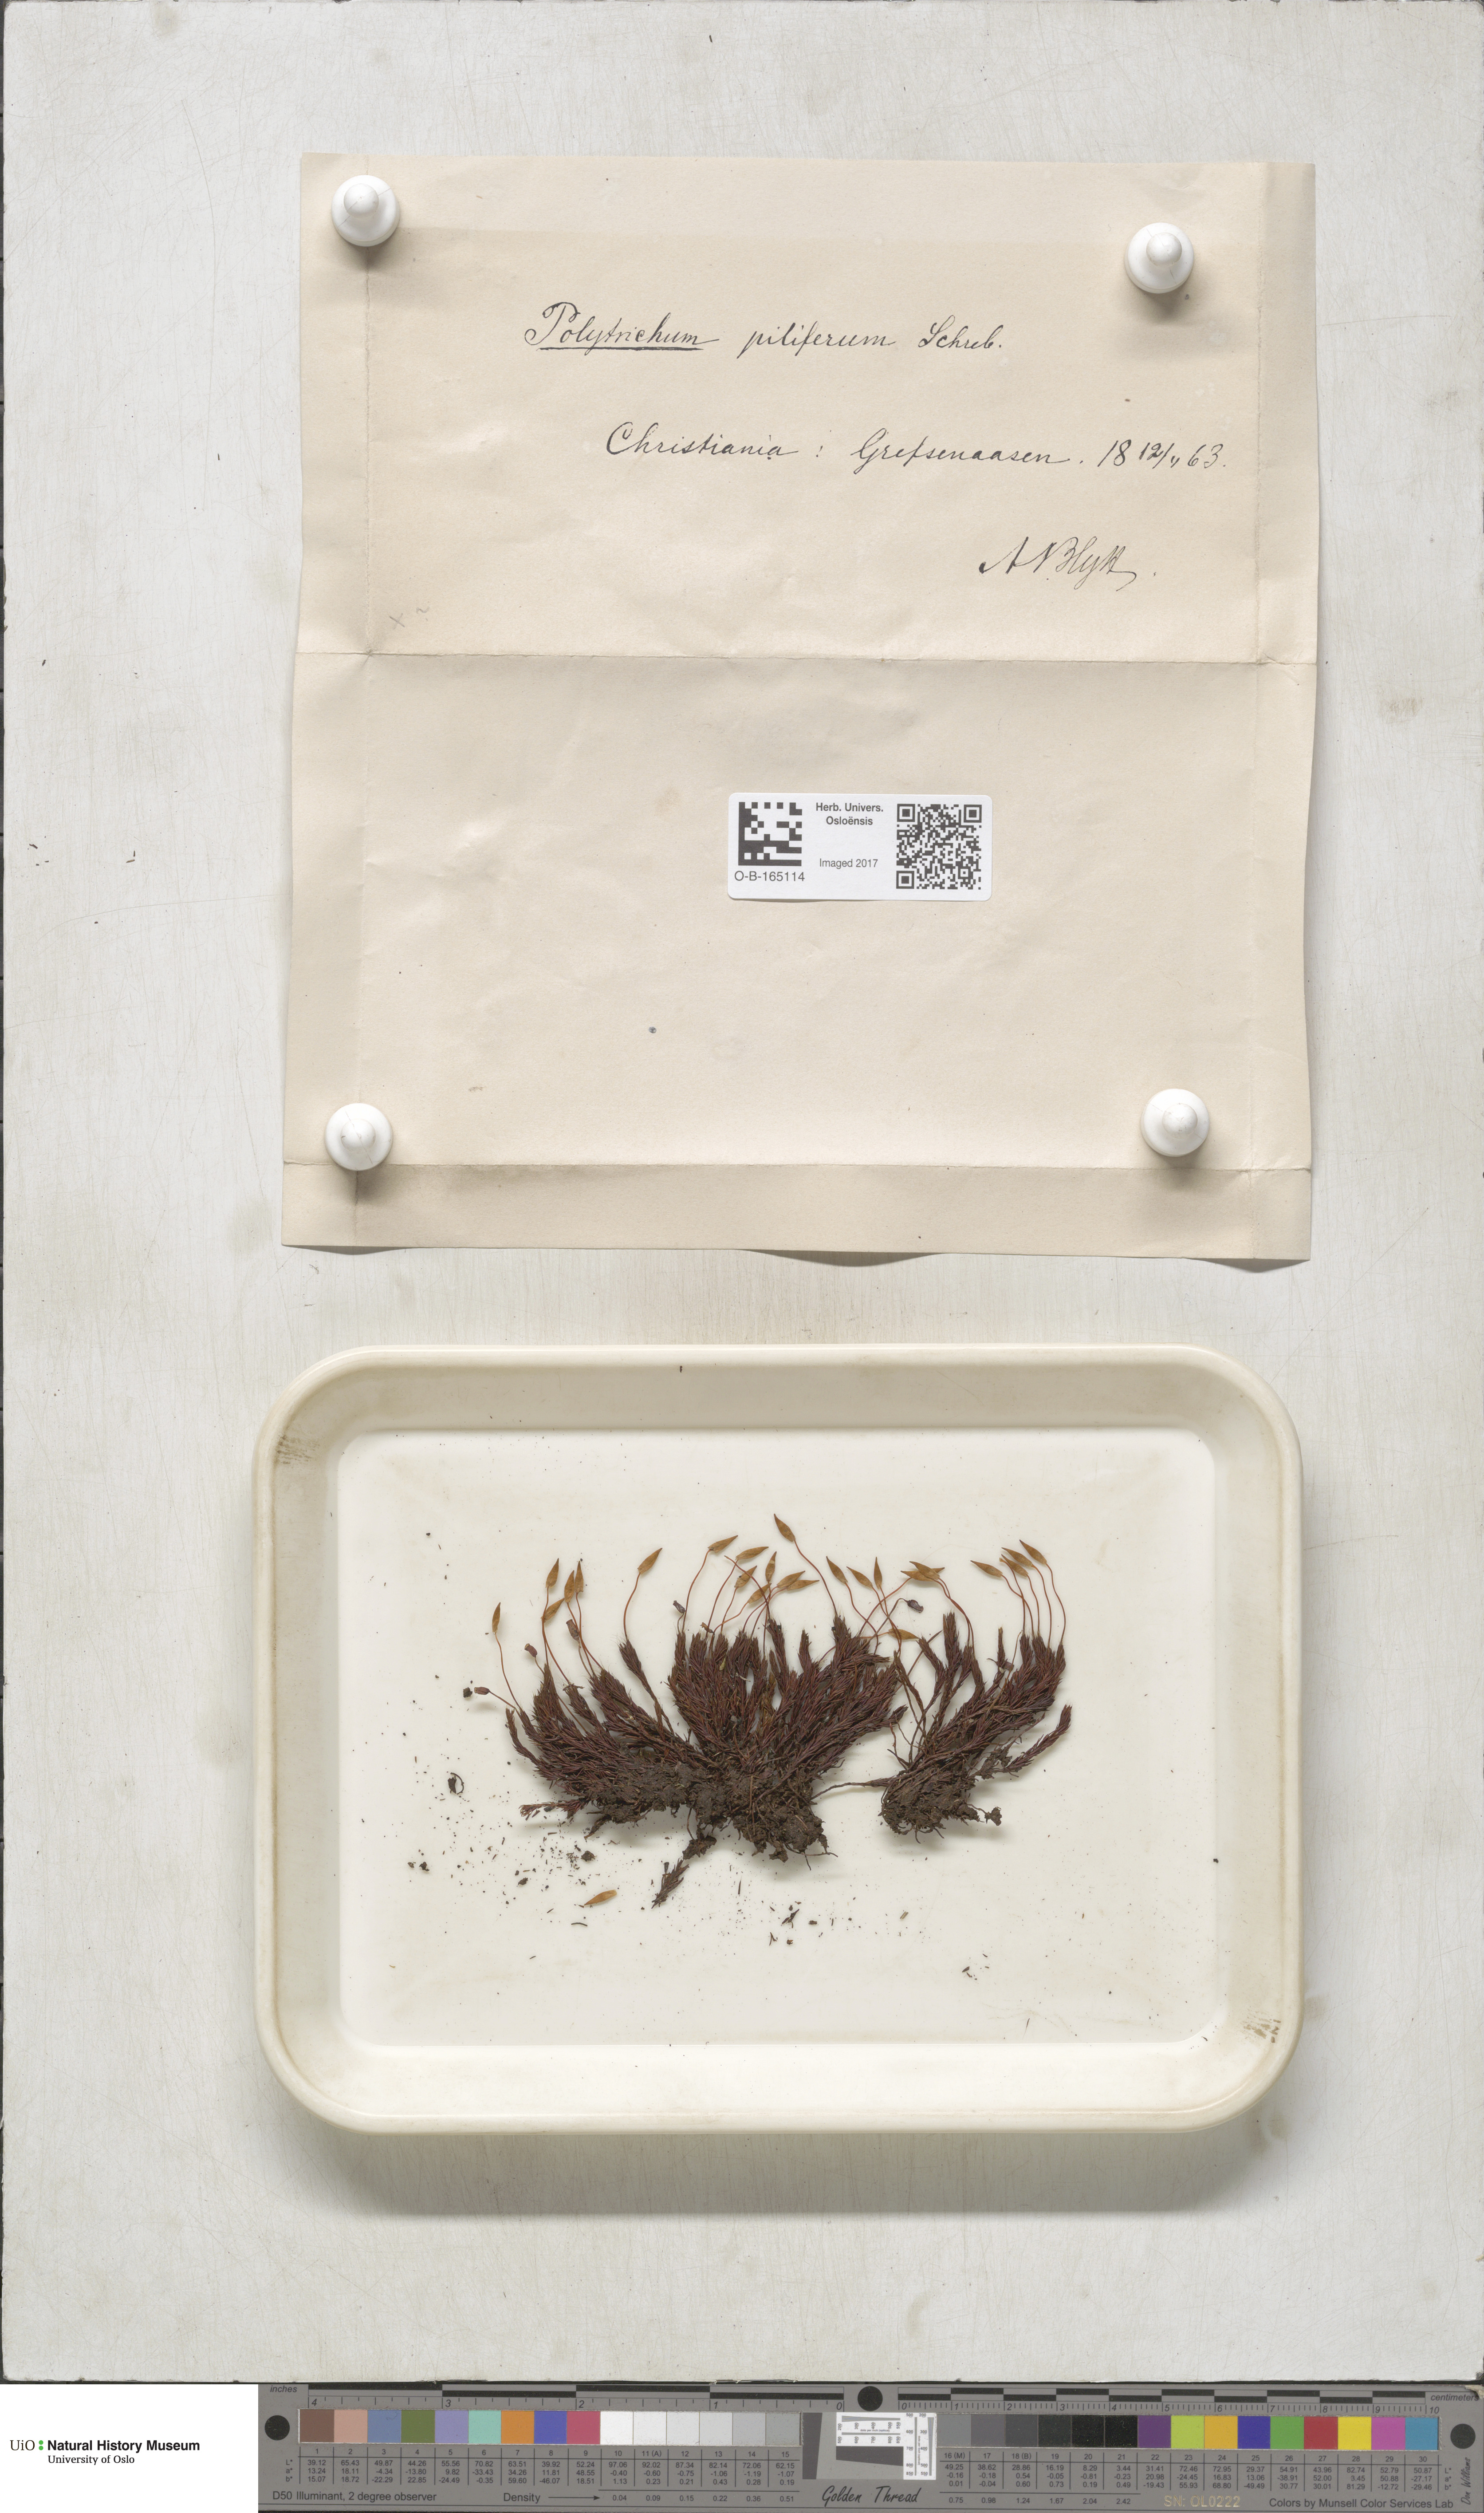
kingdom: Plantae
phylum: Bryophyta
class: Polytrichopsida
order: Polytrichales
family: Polytrichaceae
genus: Polytrichum
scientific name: Polytrichum piliferum
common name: Bristly haircap
